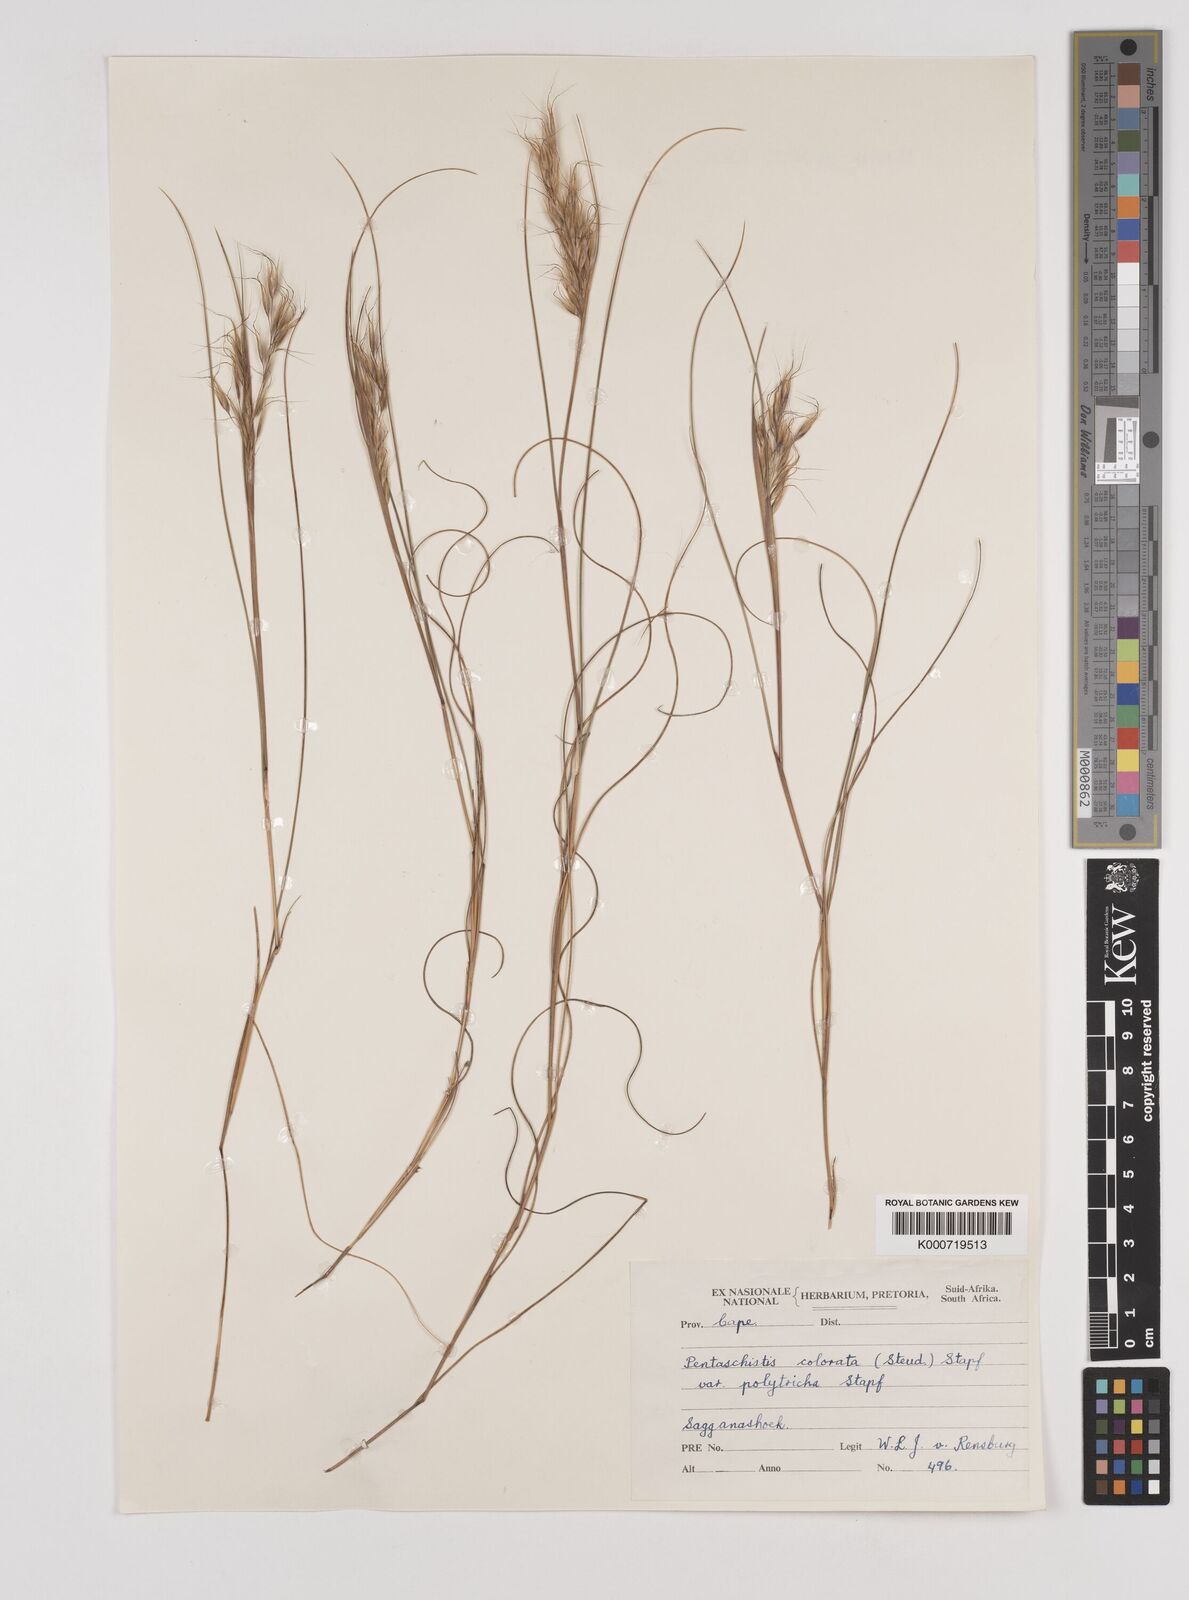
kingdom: Plantae
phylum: Tracheophyta
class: Liliopsida
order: Poales
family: Poaceae
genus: Pentameris
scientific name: Pentameris colorata
